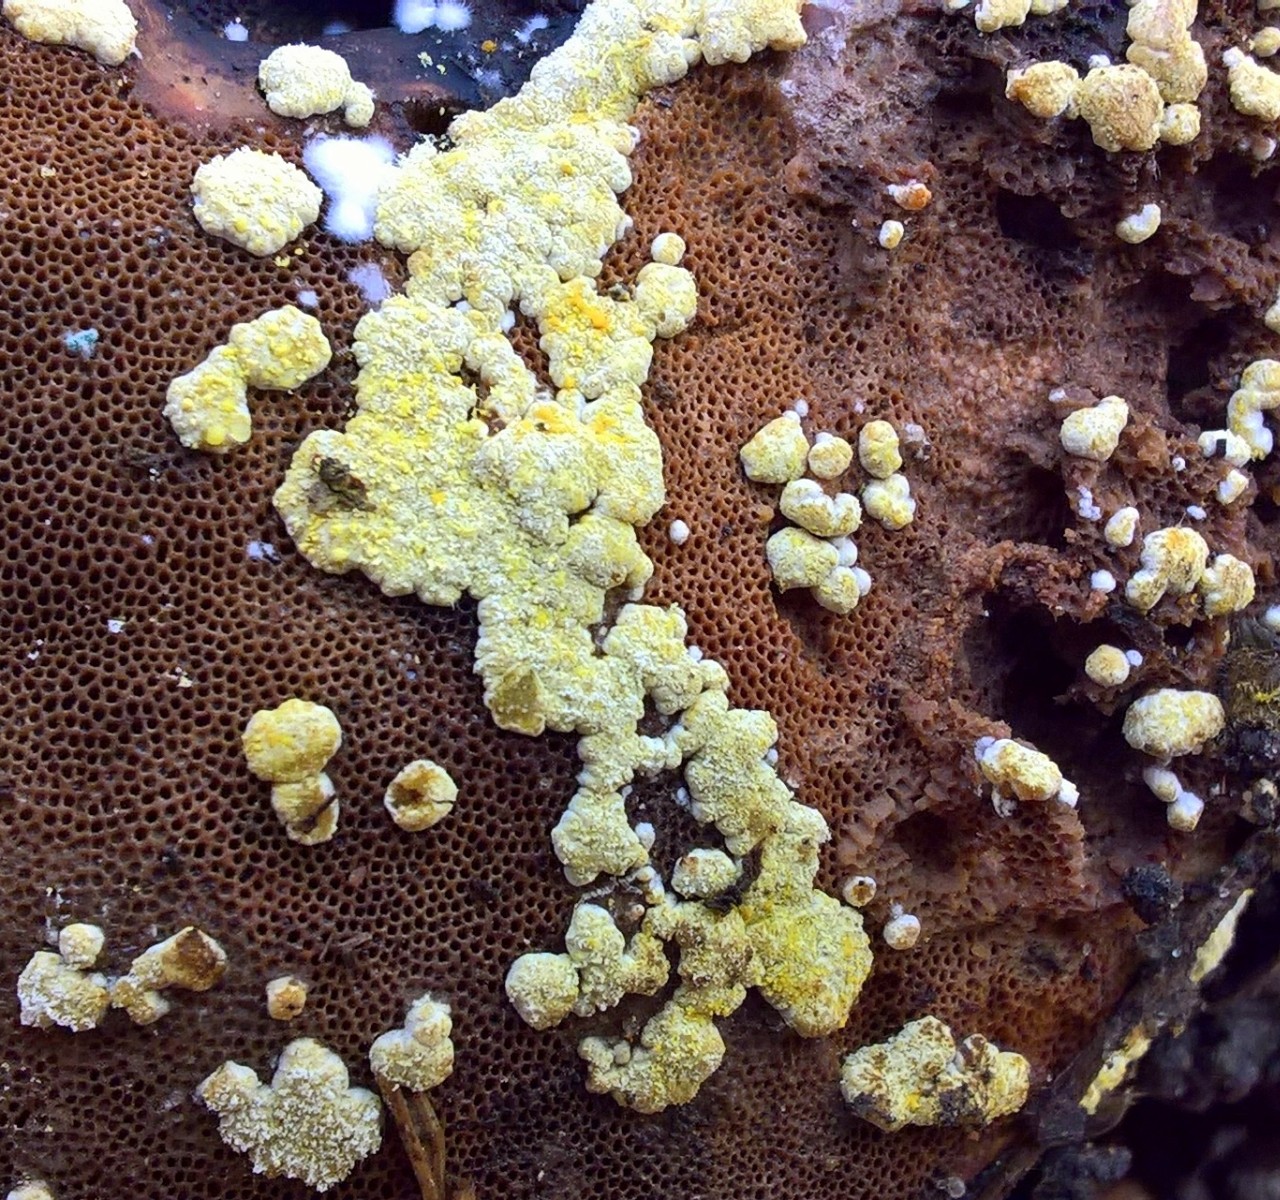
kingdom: Fungi
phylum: Ascomycota
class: Sordariomycetes
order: Hypocreales
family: Hypocreaceae
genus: Trichoderma
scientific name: Trichoderma pulvinatum
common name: snyltende kødkerne
